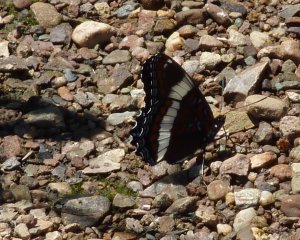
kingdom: Animalia
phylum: Arthropoda
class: Insecta
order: Lepidoptera
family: Nymphalidae
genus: Limenitis
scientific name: Limenitis arthemis
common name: Red-spotted Admiral
